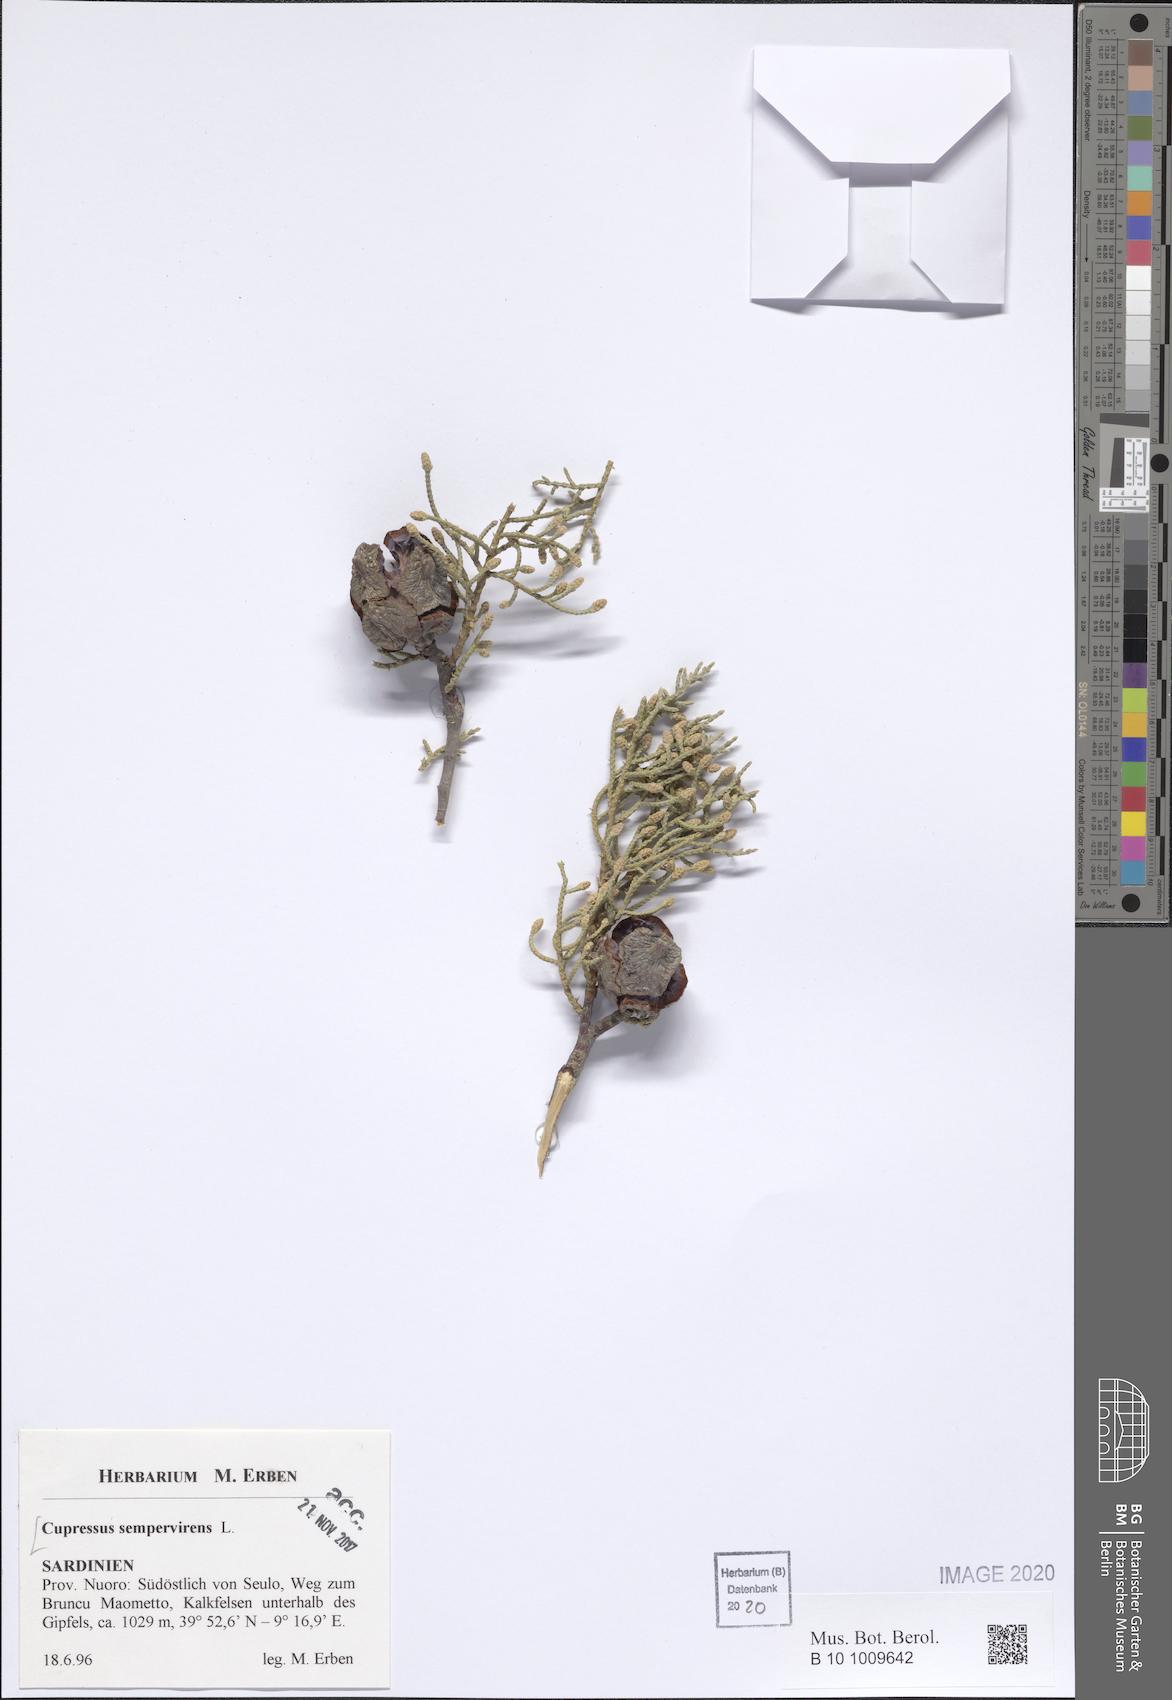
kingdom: Plantae
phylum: Tracheophyta
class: Pinopsida
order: Pinales
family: Cupressaceae
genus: Cupressus
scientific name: Cupressus sempervirens
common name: Italian cypress
